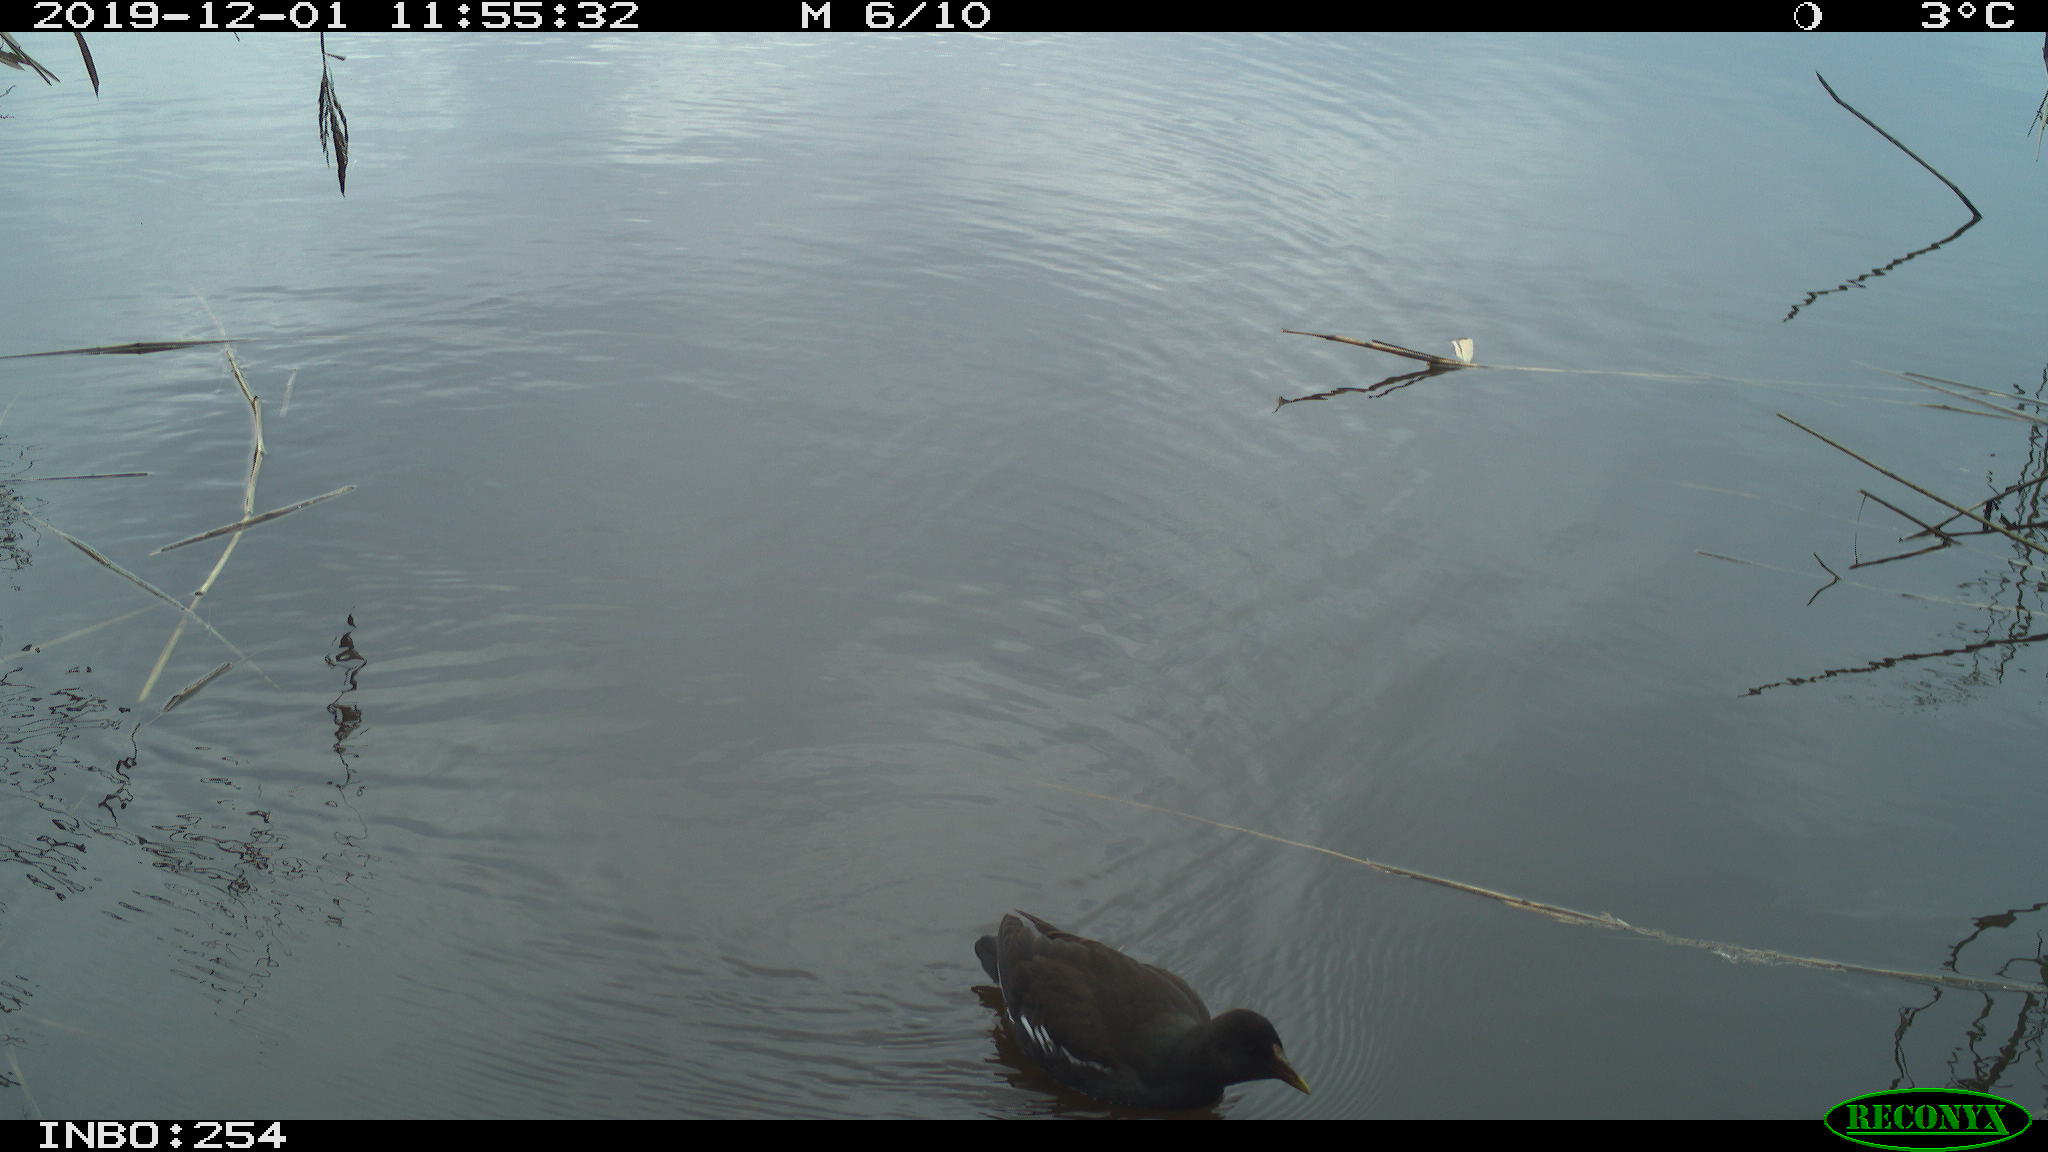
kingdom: Animalia
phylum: Chordata
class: Aves
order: Gruiformes
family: Rallidae
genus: Gallinula
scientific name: Gallinula chloropus
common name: Common moorhen
